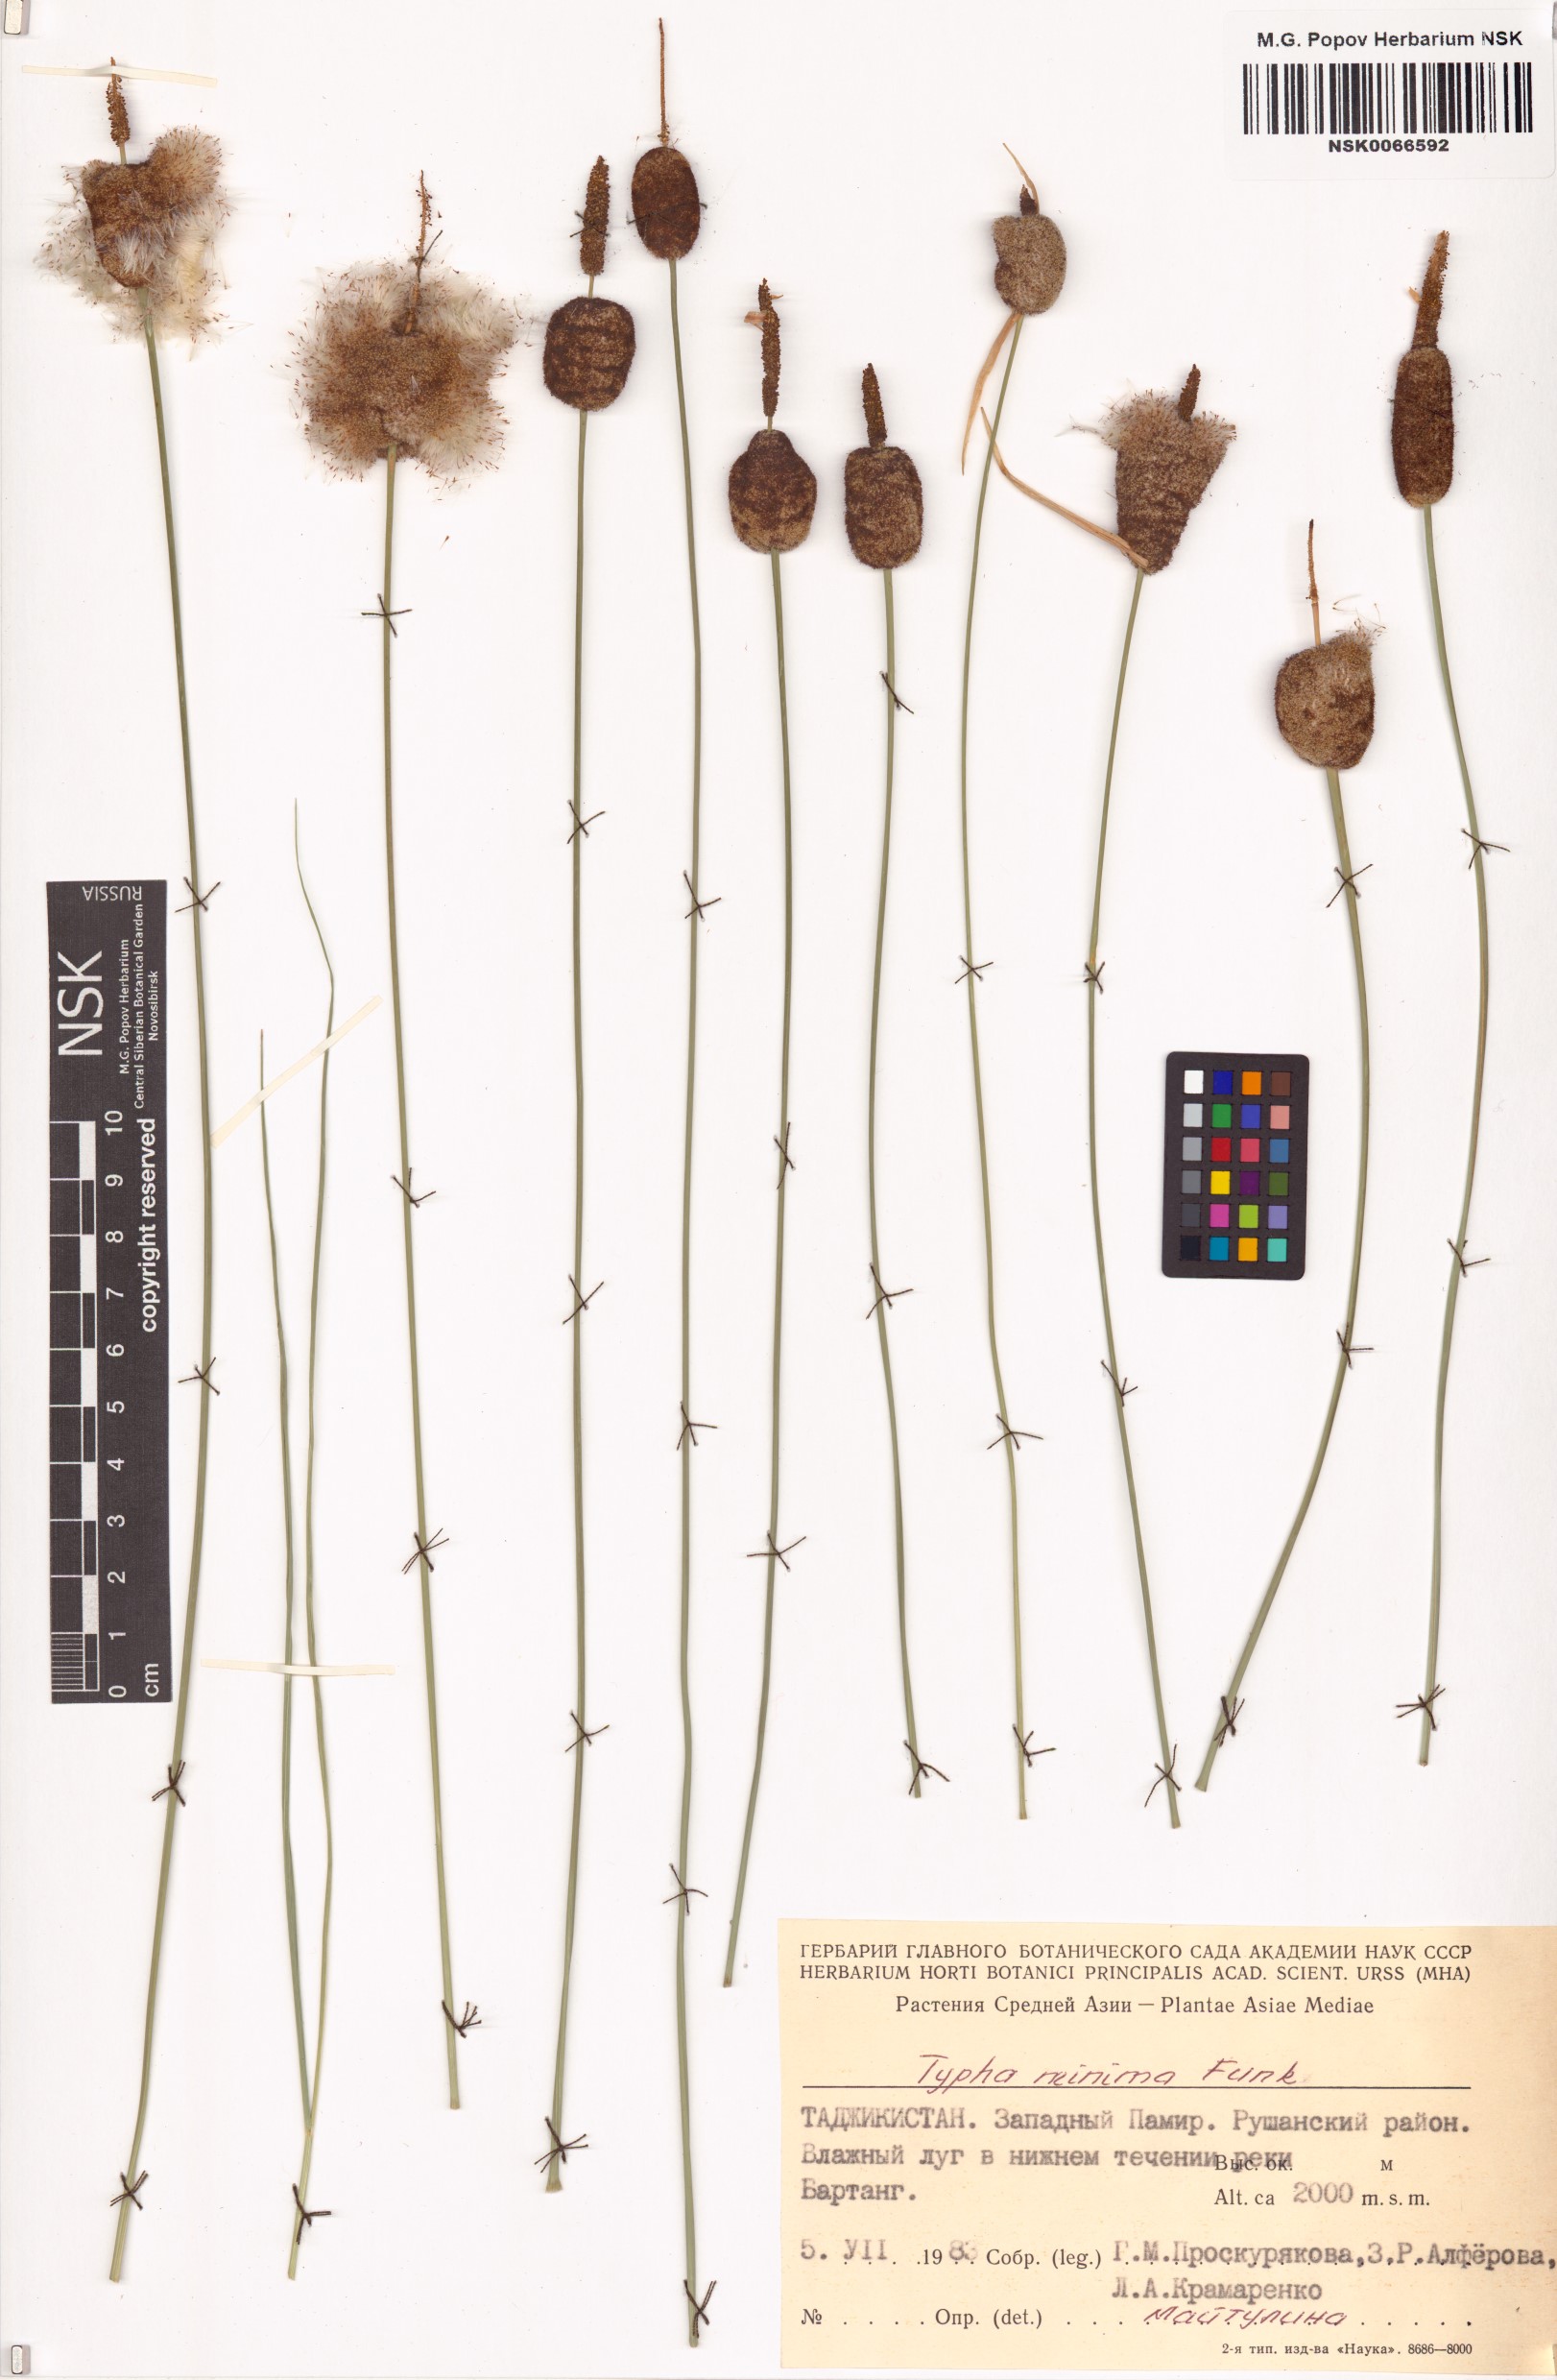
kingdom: Plantae
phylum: Tracheophyta
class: Liliopsida
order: Poales
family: Typhaceae
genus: Typha
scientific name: Typha minima
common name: Dwarf bulrush
